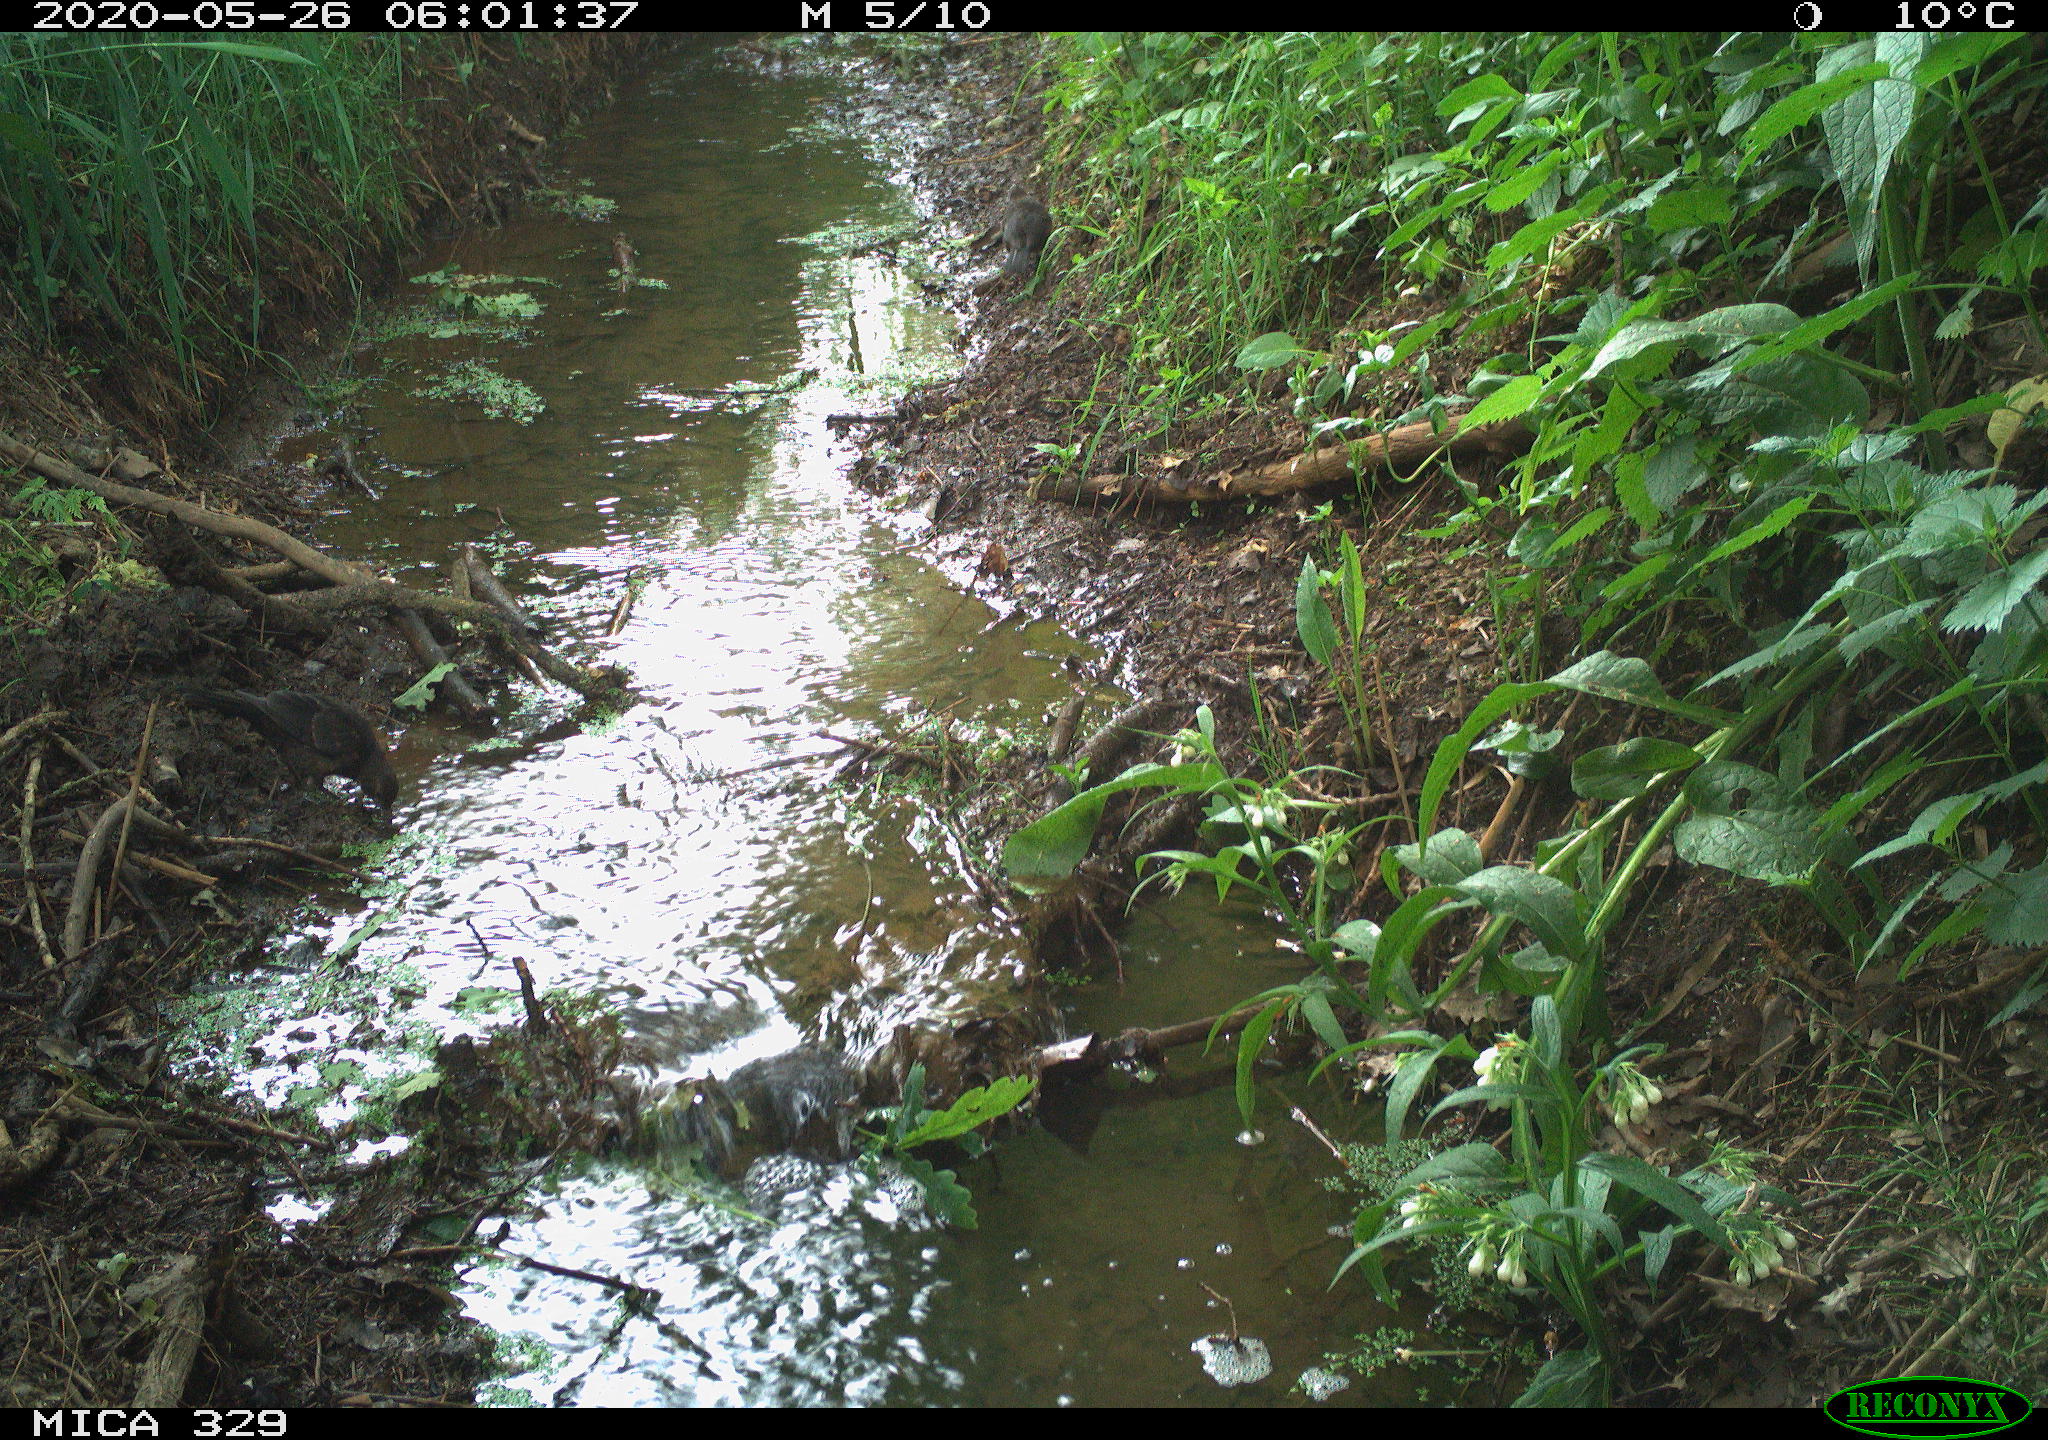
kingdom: Animalia
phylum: Chordata
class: Aves
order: Passeriformes
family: Turdidae
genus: Turdus
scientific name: Turdus philomelos
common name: Song thrush
